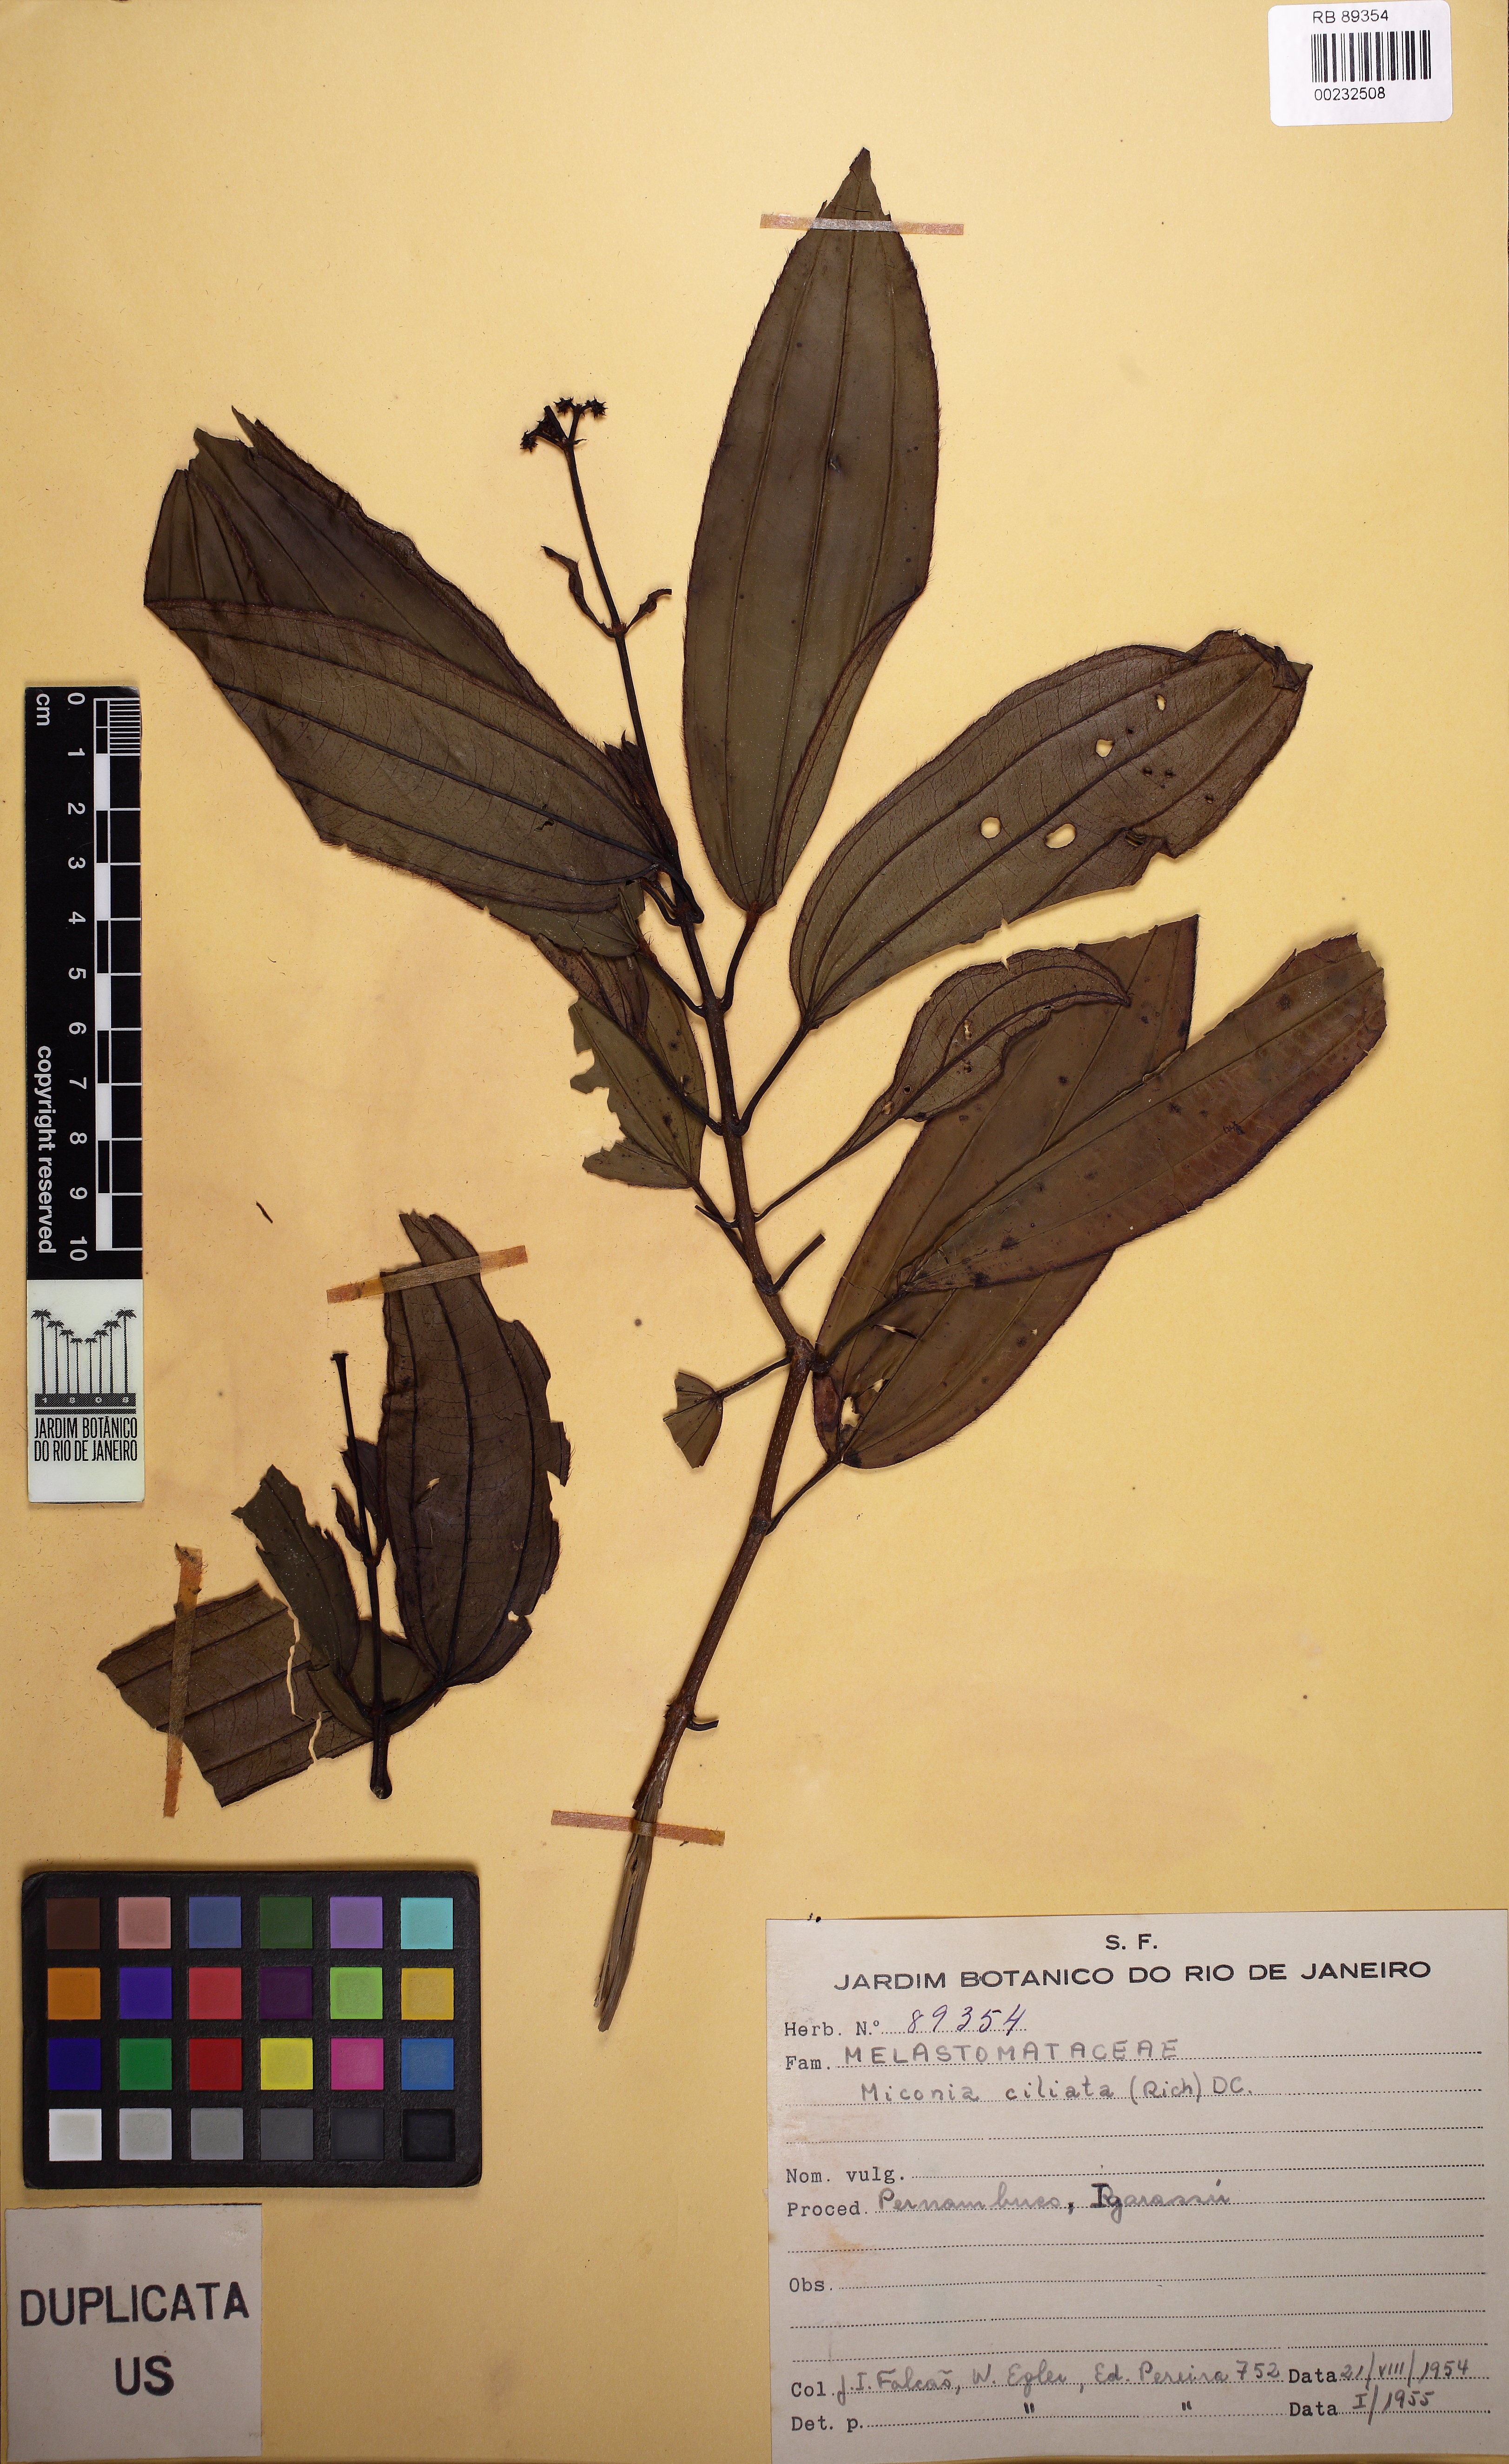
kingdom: Plantae
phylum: Tracheophyta
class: Magnoliopsida
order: Myrtales
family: Melastomataceae
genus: Miconia
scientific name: Miconia ciliata
